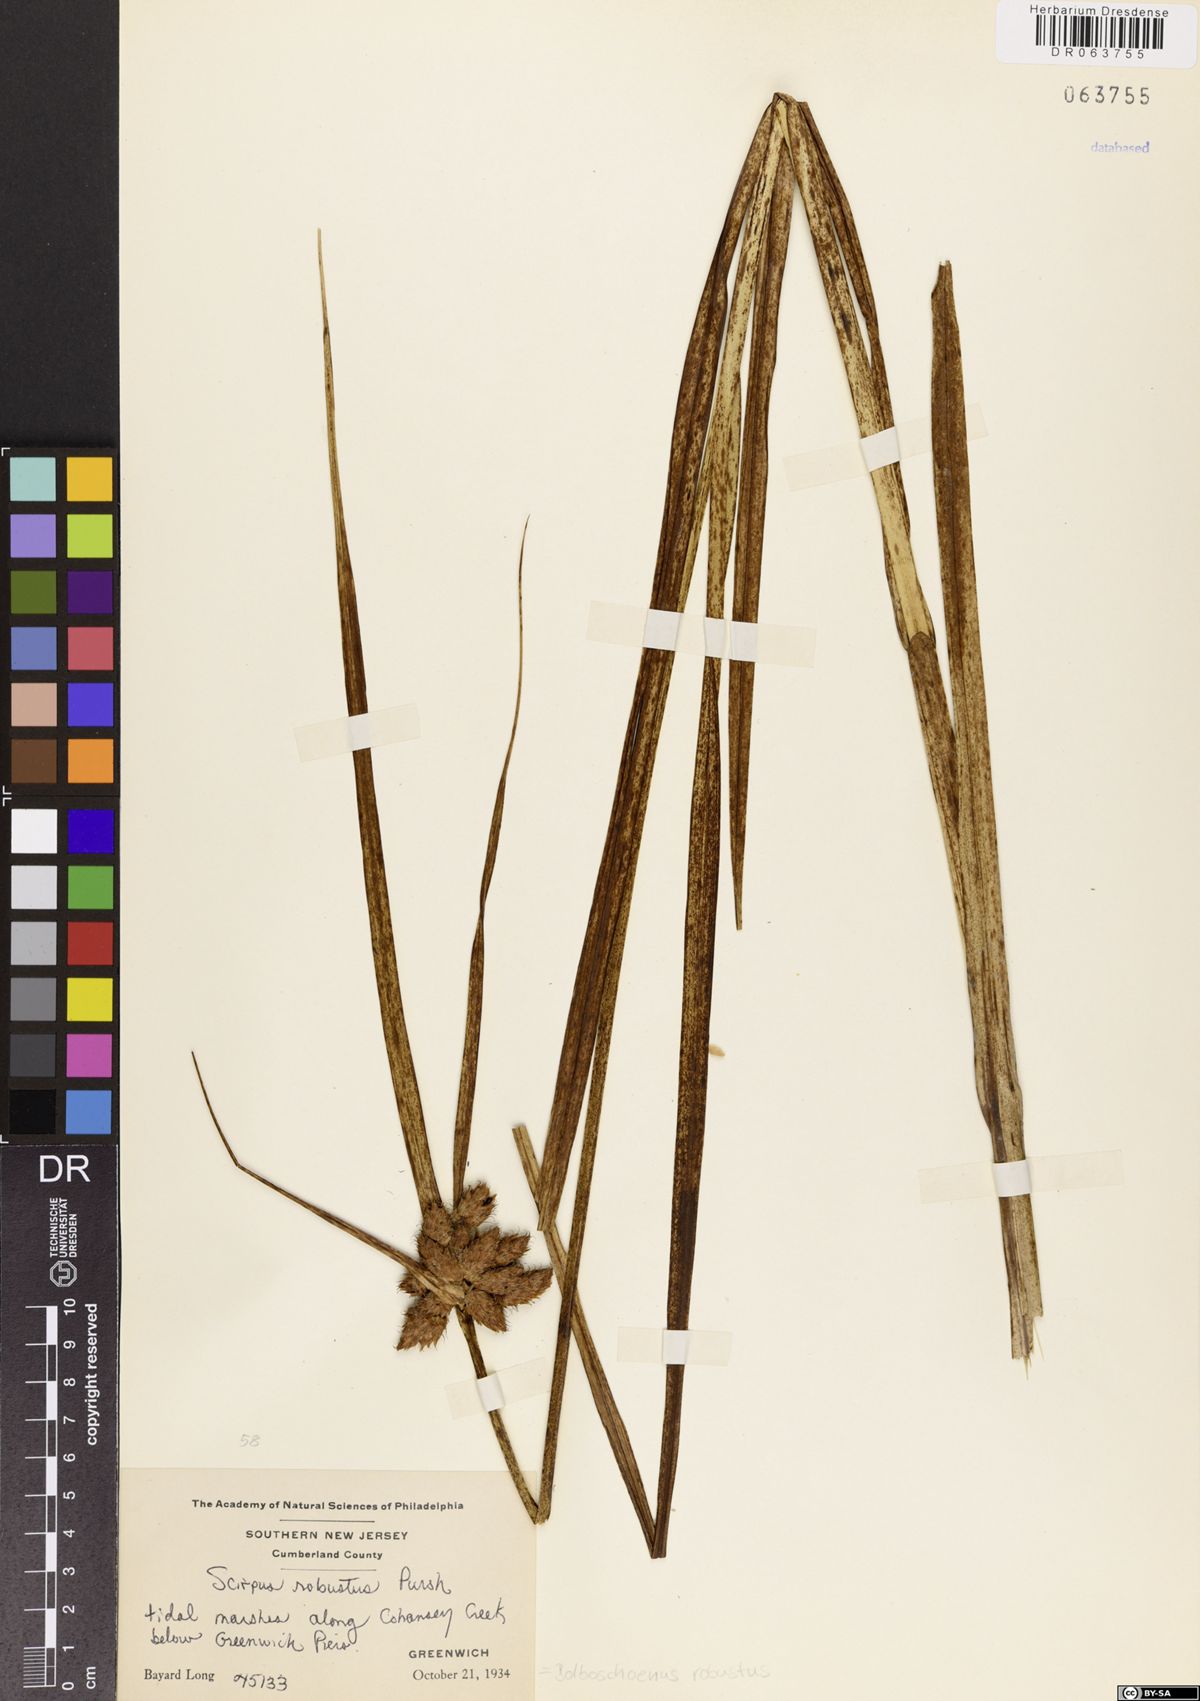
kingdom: Plantae
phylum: Tracheophyta
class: Liliopsida
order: Poales
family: Cyperaceae
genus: Bolboschoenus
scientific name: Bolboschoenus robustus
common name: Seacoast bulrush
